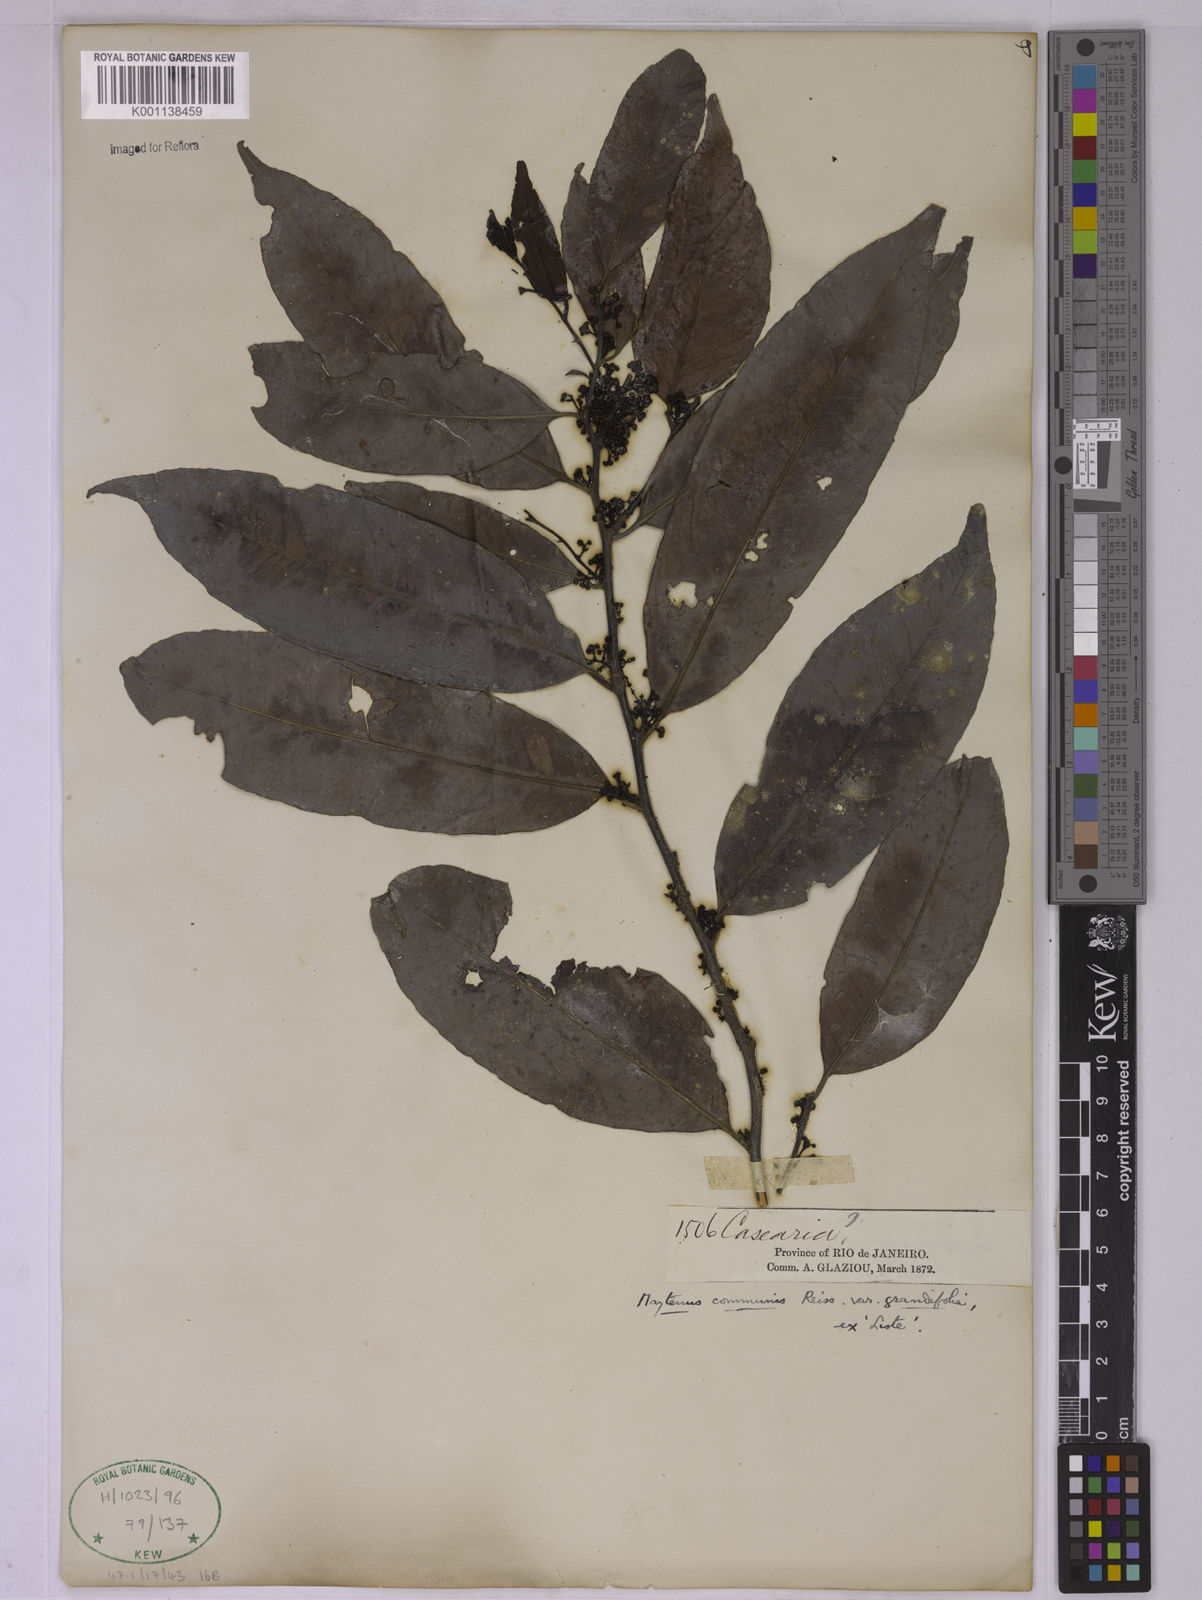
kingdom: Plantae
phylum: Tracheophyta
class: Magnoliopsida
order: Celastrales
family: Celastraceae
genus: Monteverdia
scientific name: Monteverdia communis
